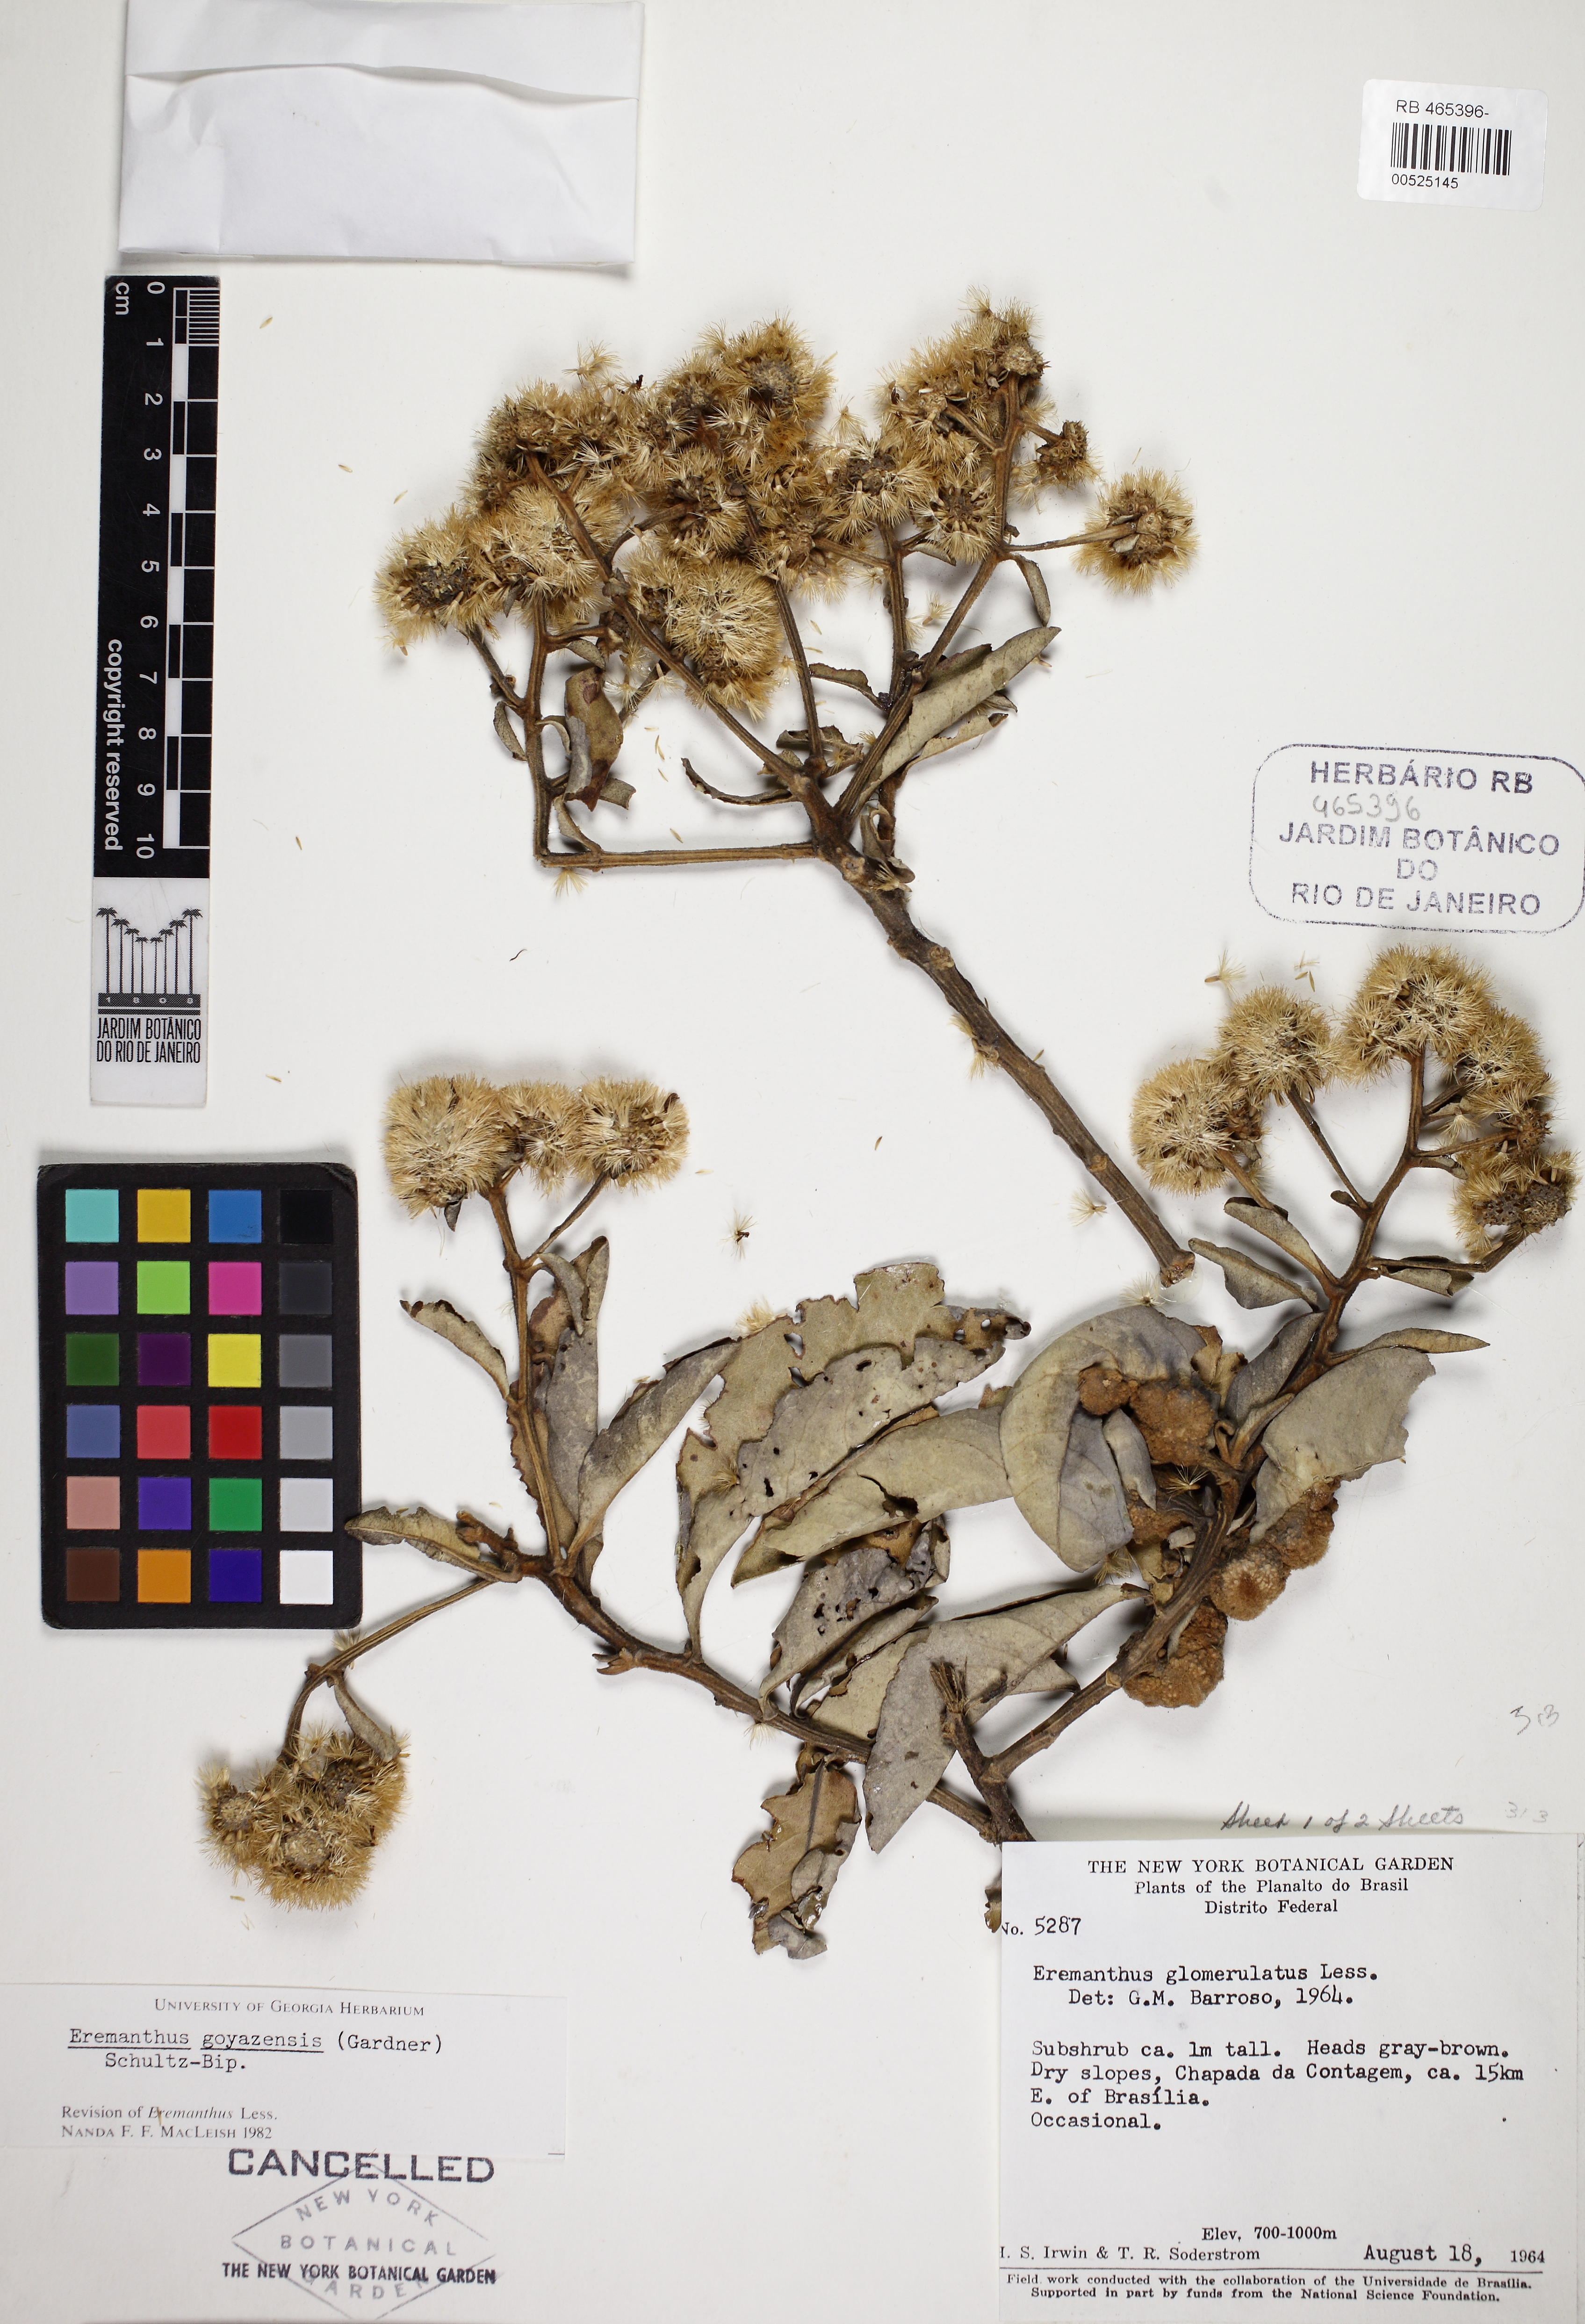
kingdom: Plantae
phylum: Tracheophyta
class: Magnoliopsida
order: Asterales
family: Asteraceae
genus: Eremanthus
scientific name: Eremanthus glomerulatus
